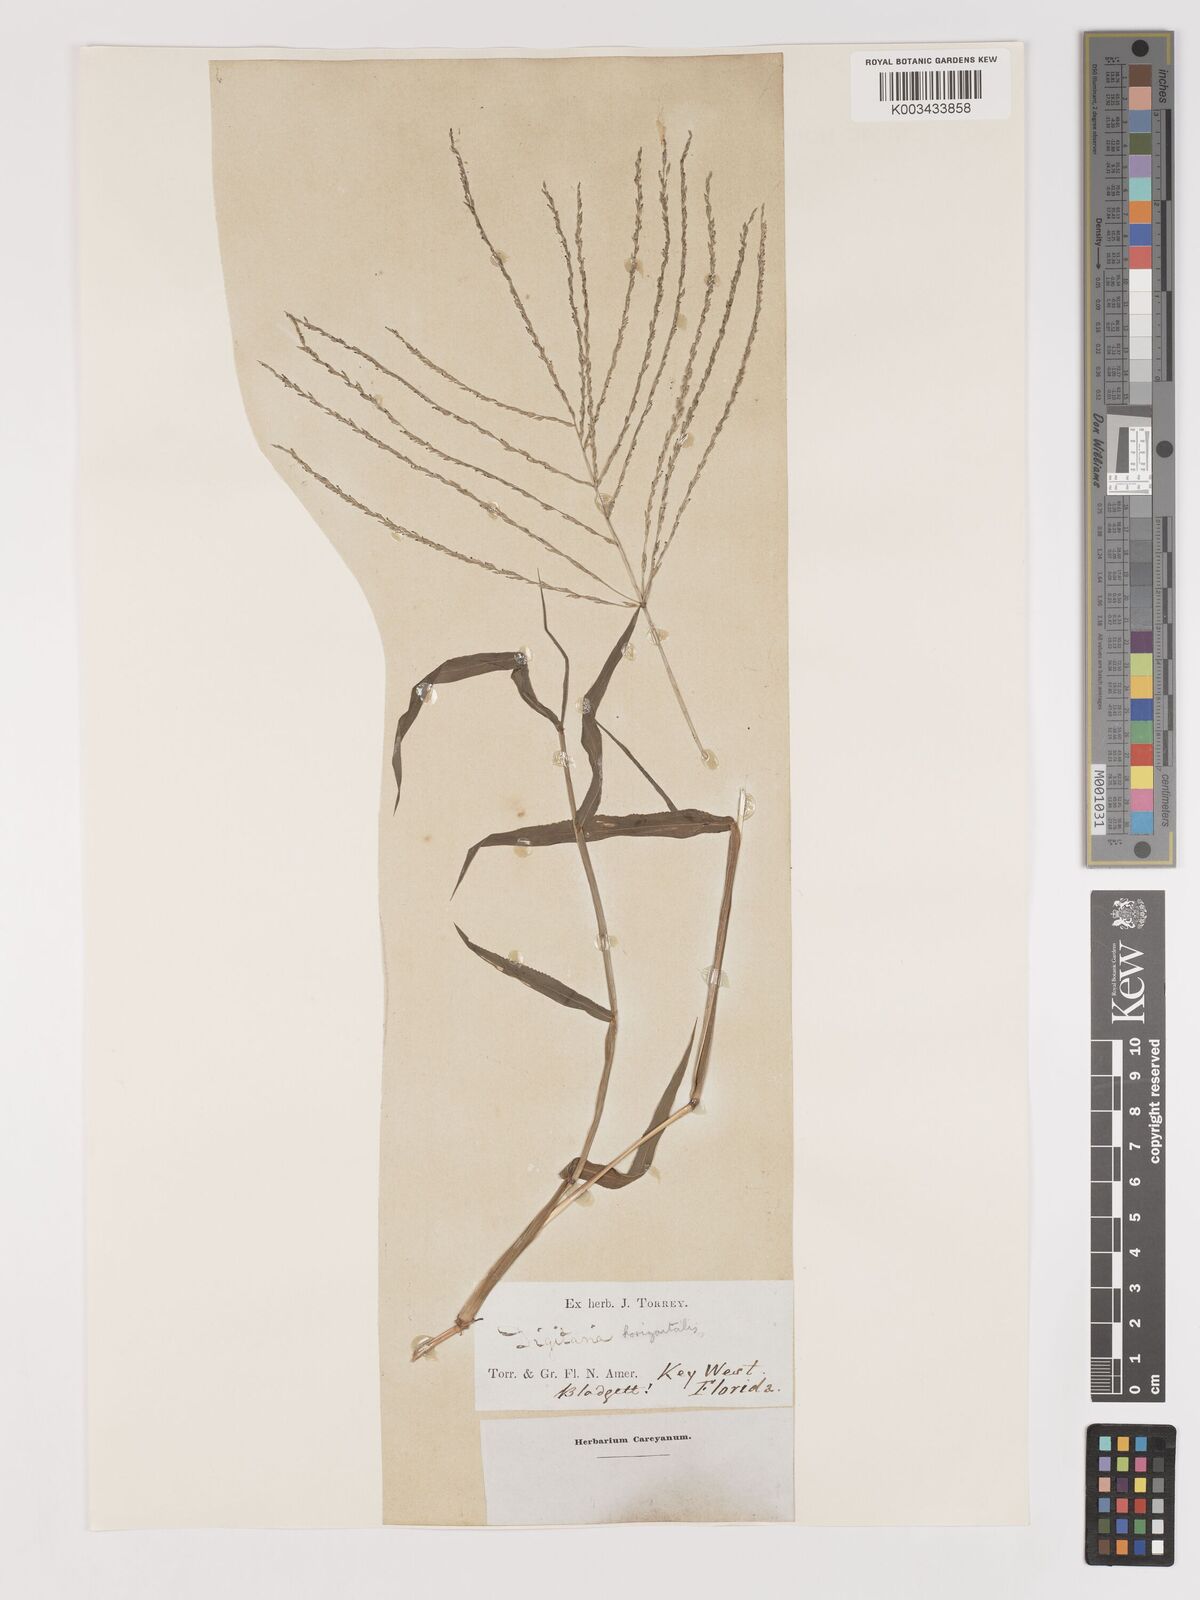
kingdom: Plantae
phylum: Tracheophyta
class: Liliopsida
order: Poales
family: Poaceae
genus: Digitaria
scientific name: Digitaria horizontalis
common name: Jamaican crabgrass
